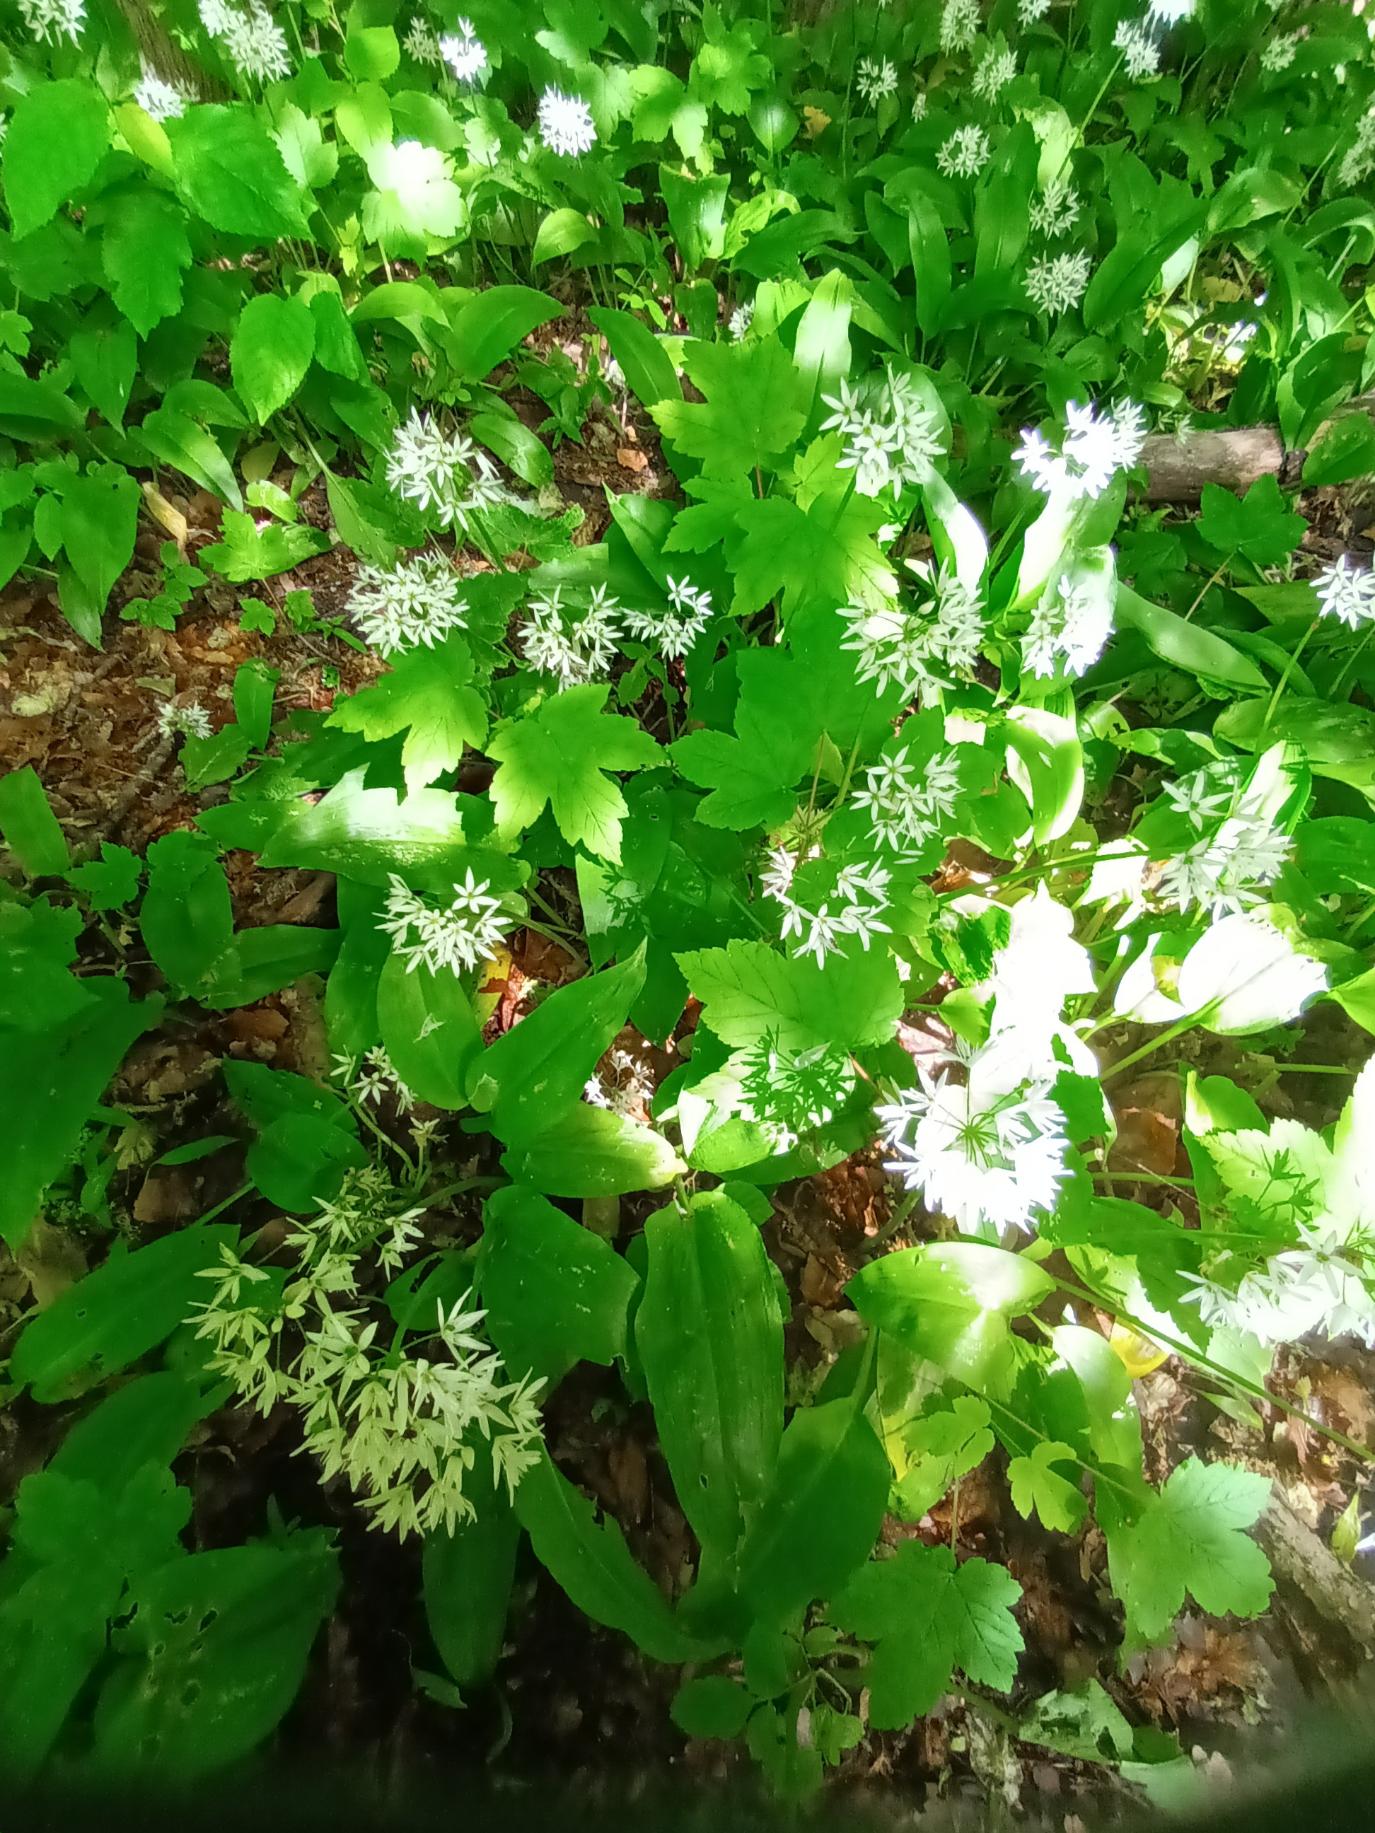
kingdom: Plantae
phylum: Tracheophyta
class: Liliopsida
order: Asparagales
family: Amaryllidaceae
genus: Allium
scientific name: Allium ursinum
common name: Rams-løg
